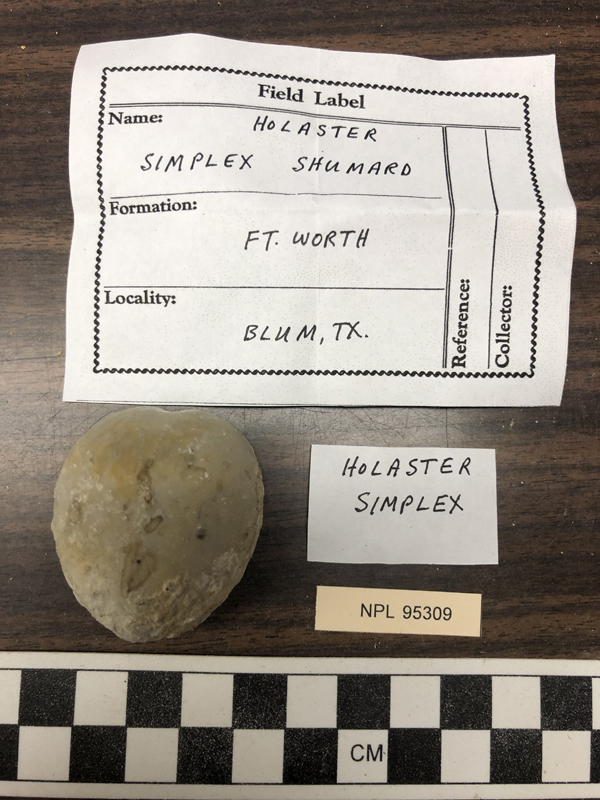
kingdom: Animalia
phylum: Echinodermata
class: Echinoidea
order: Holasteroida
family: Holasteridae
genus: Holaster
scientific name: Holaster simplex
